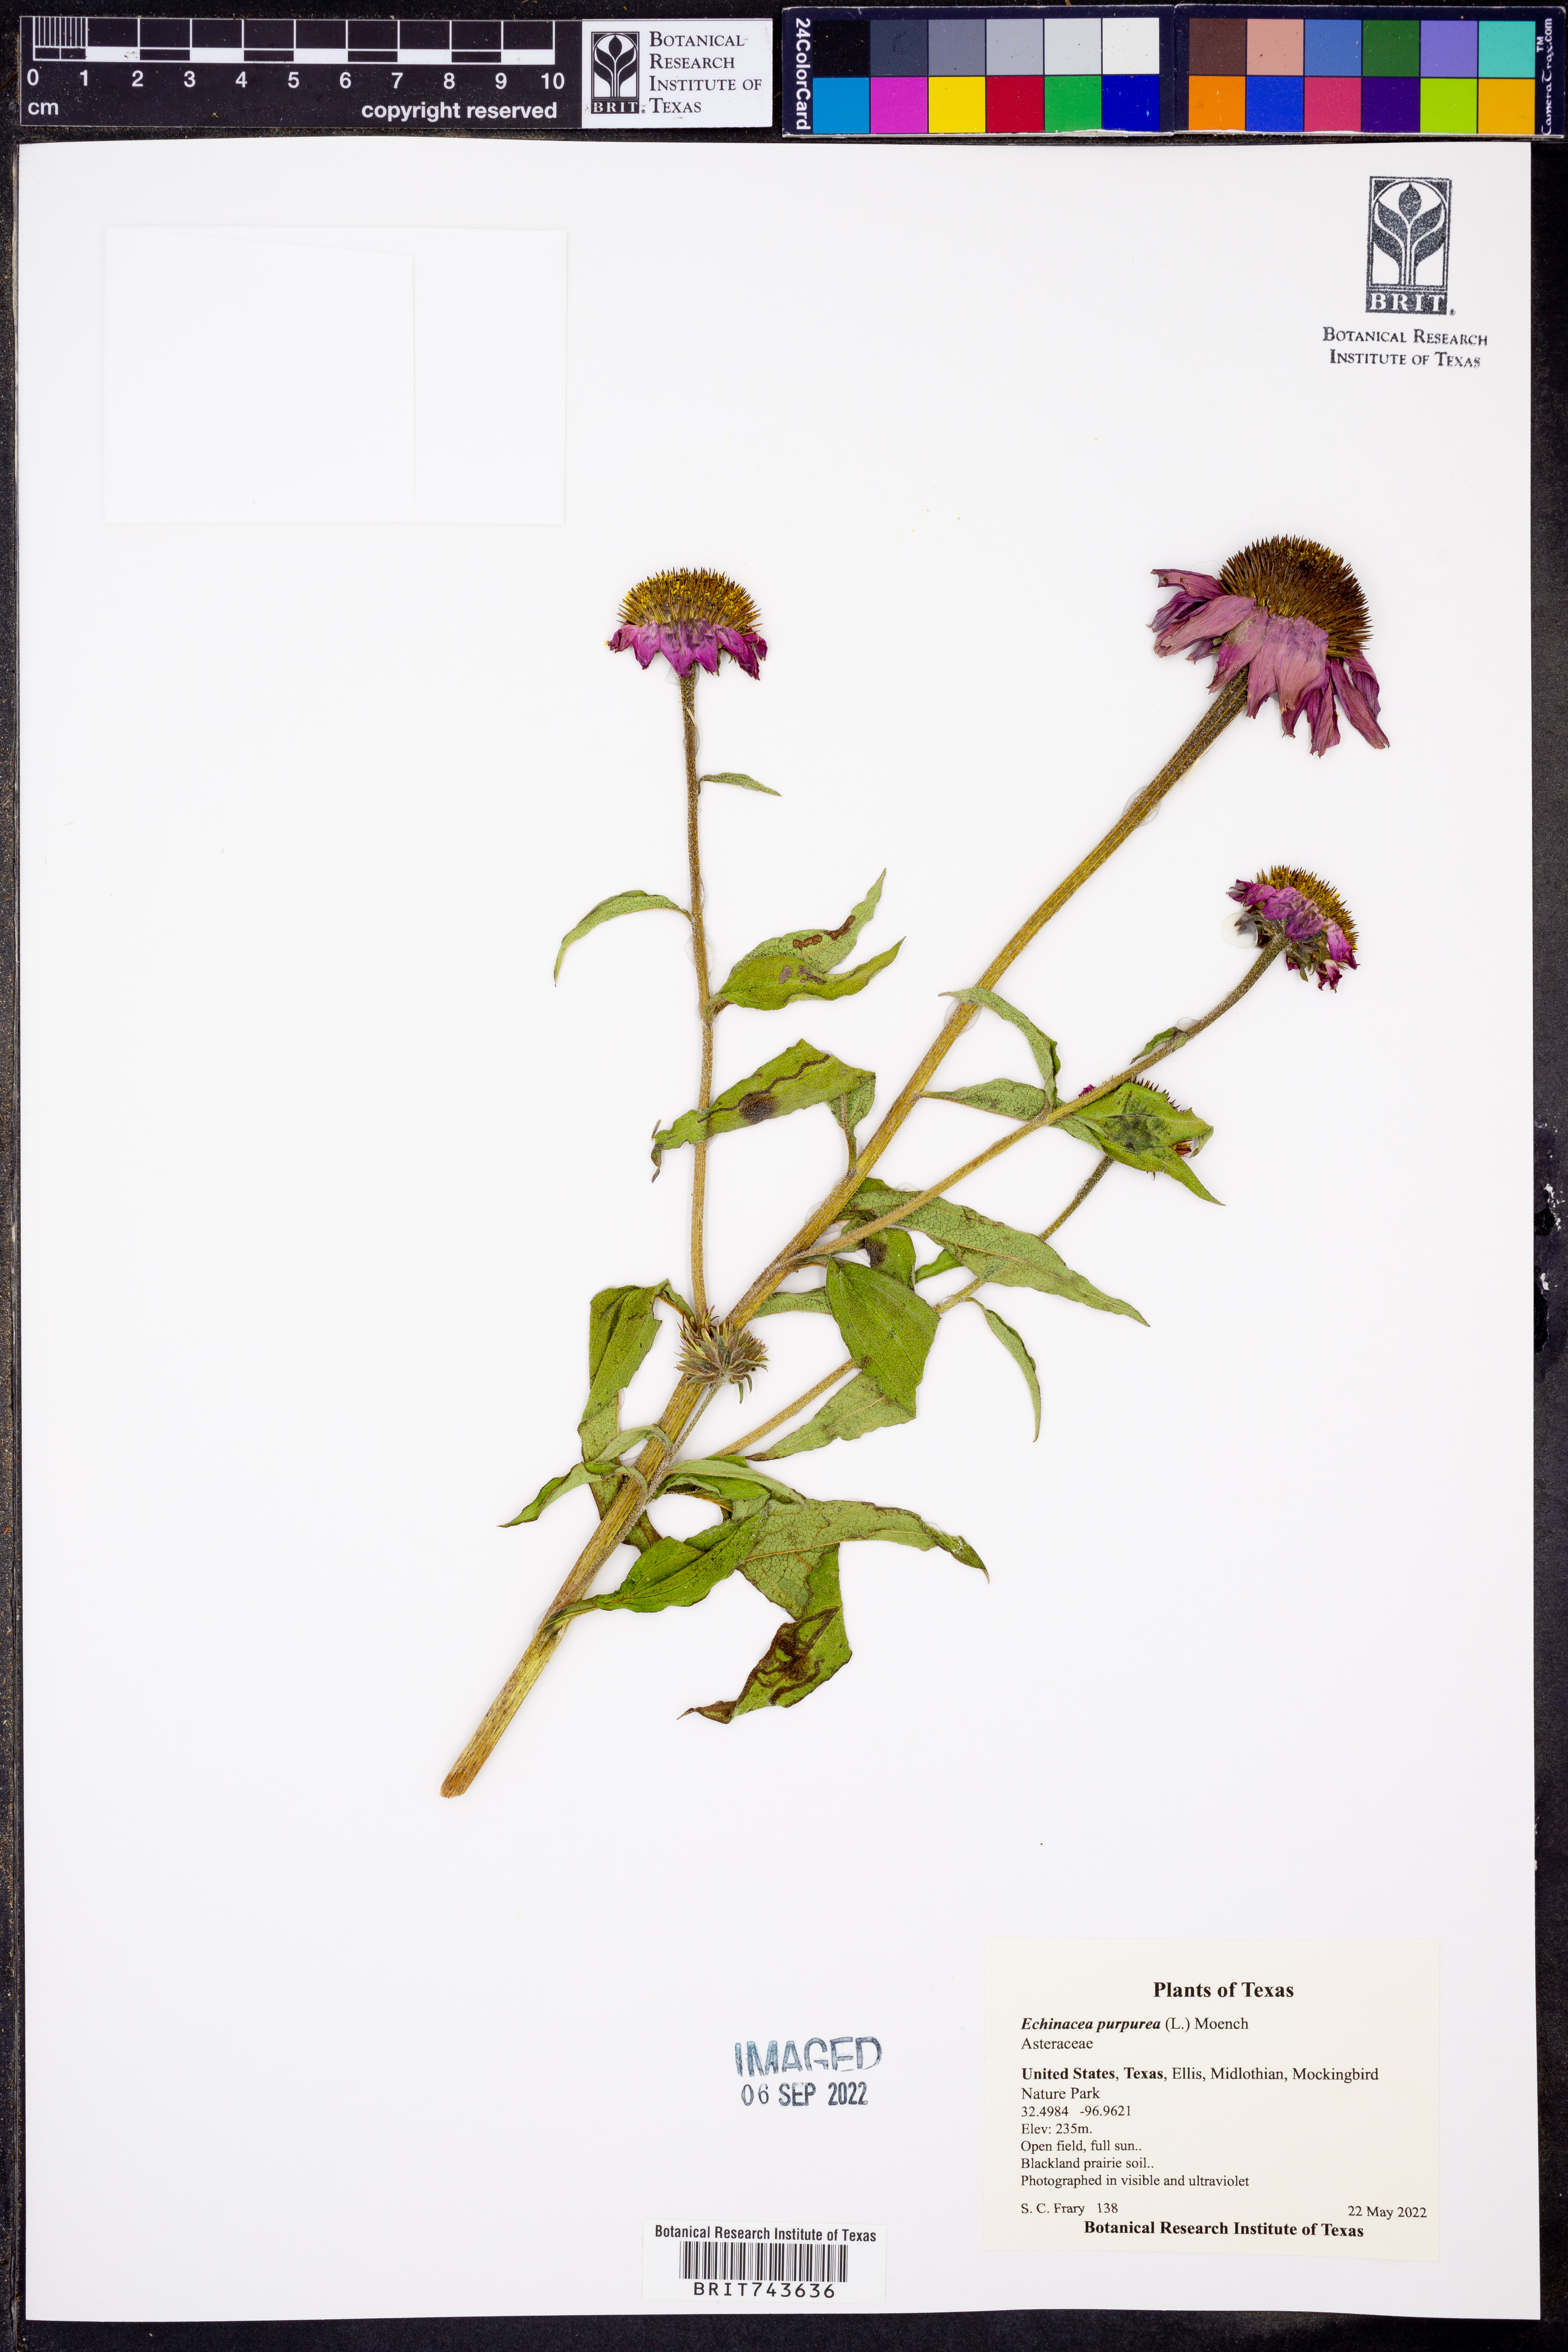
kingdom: Plantae
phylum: Tracheophyta
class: Magnoliopsida
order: Asterales
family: Asteraceae
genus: Echinacea
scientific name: Echinacea purpurea
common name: Broad-leaved purple coneflower
